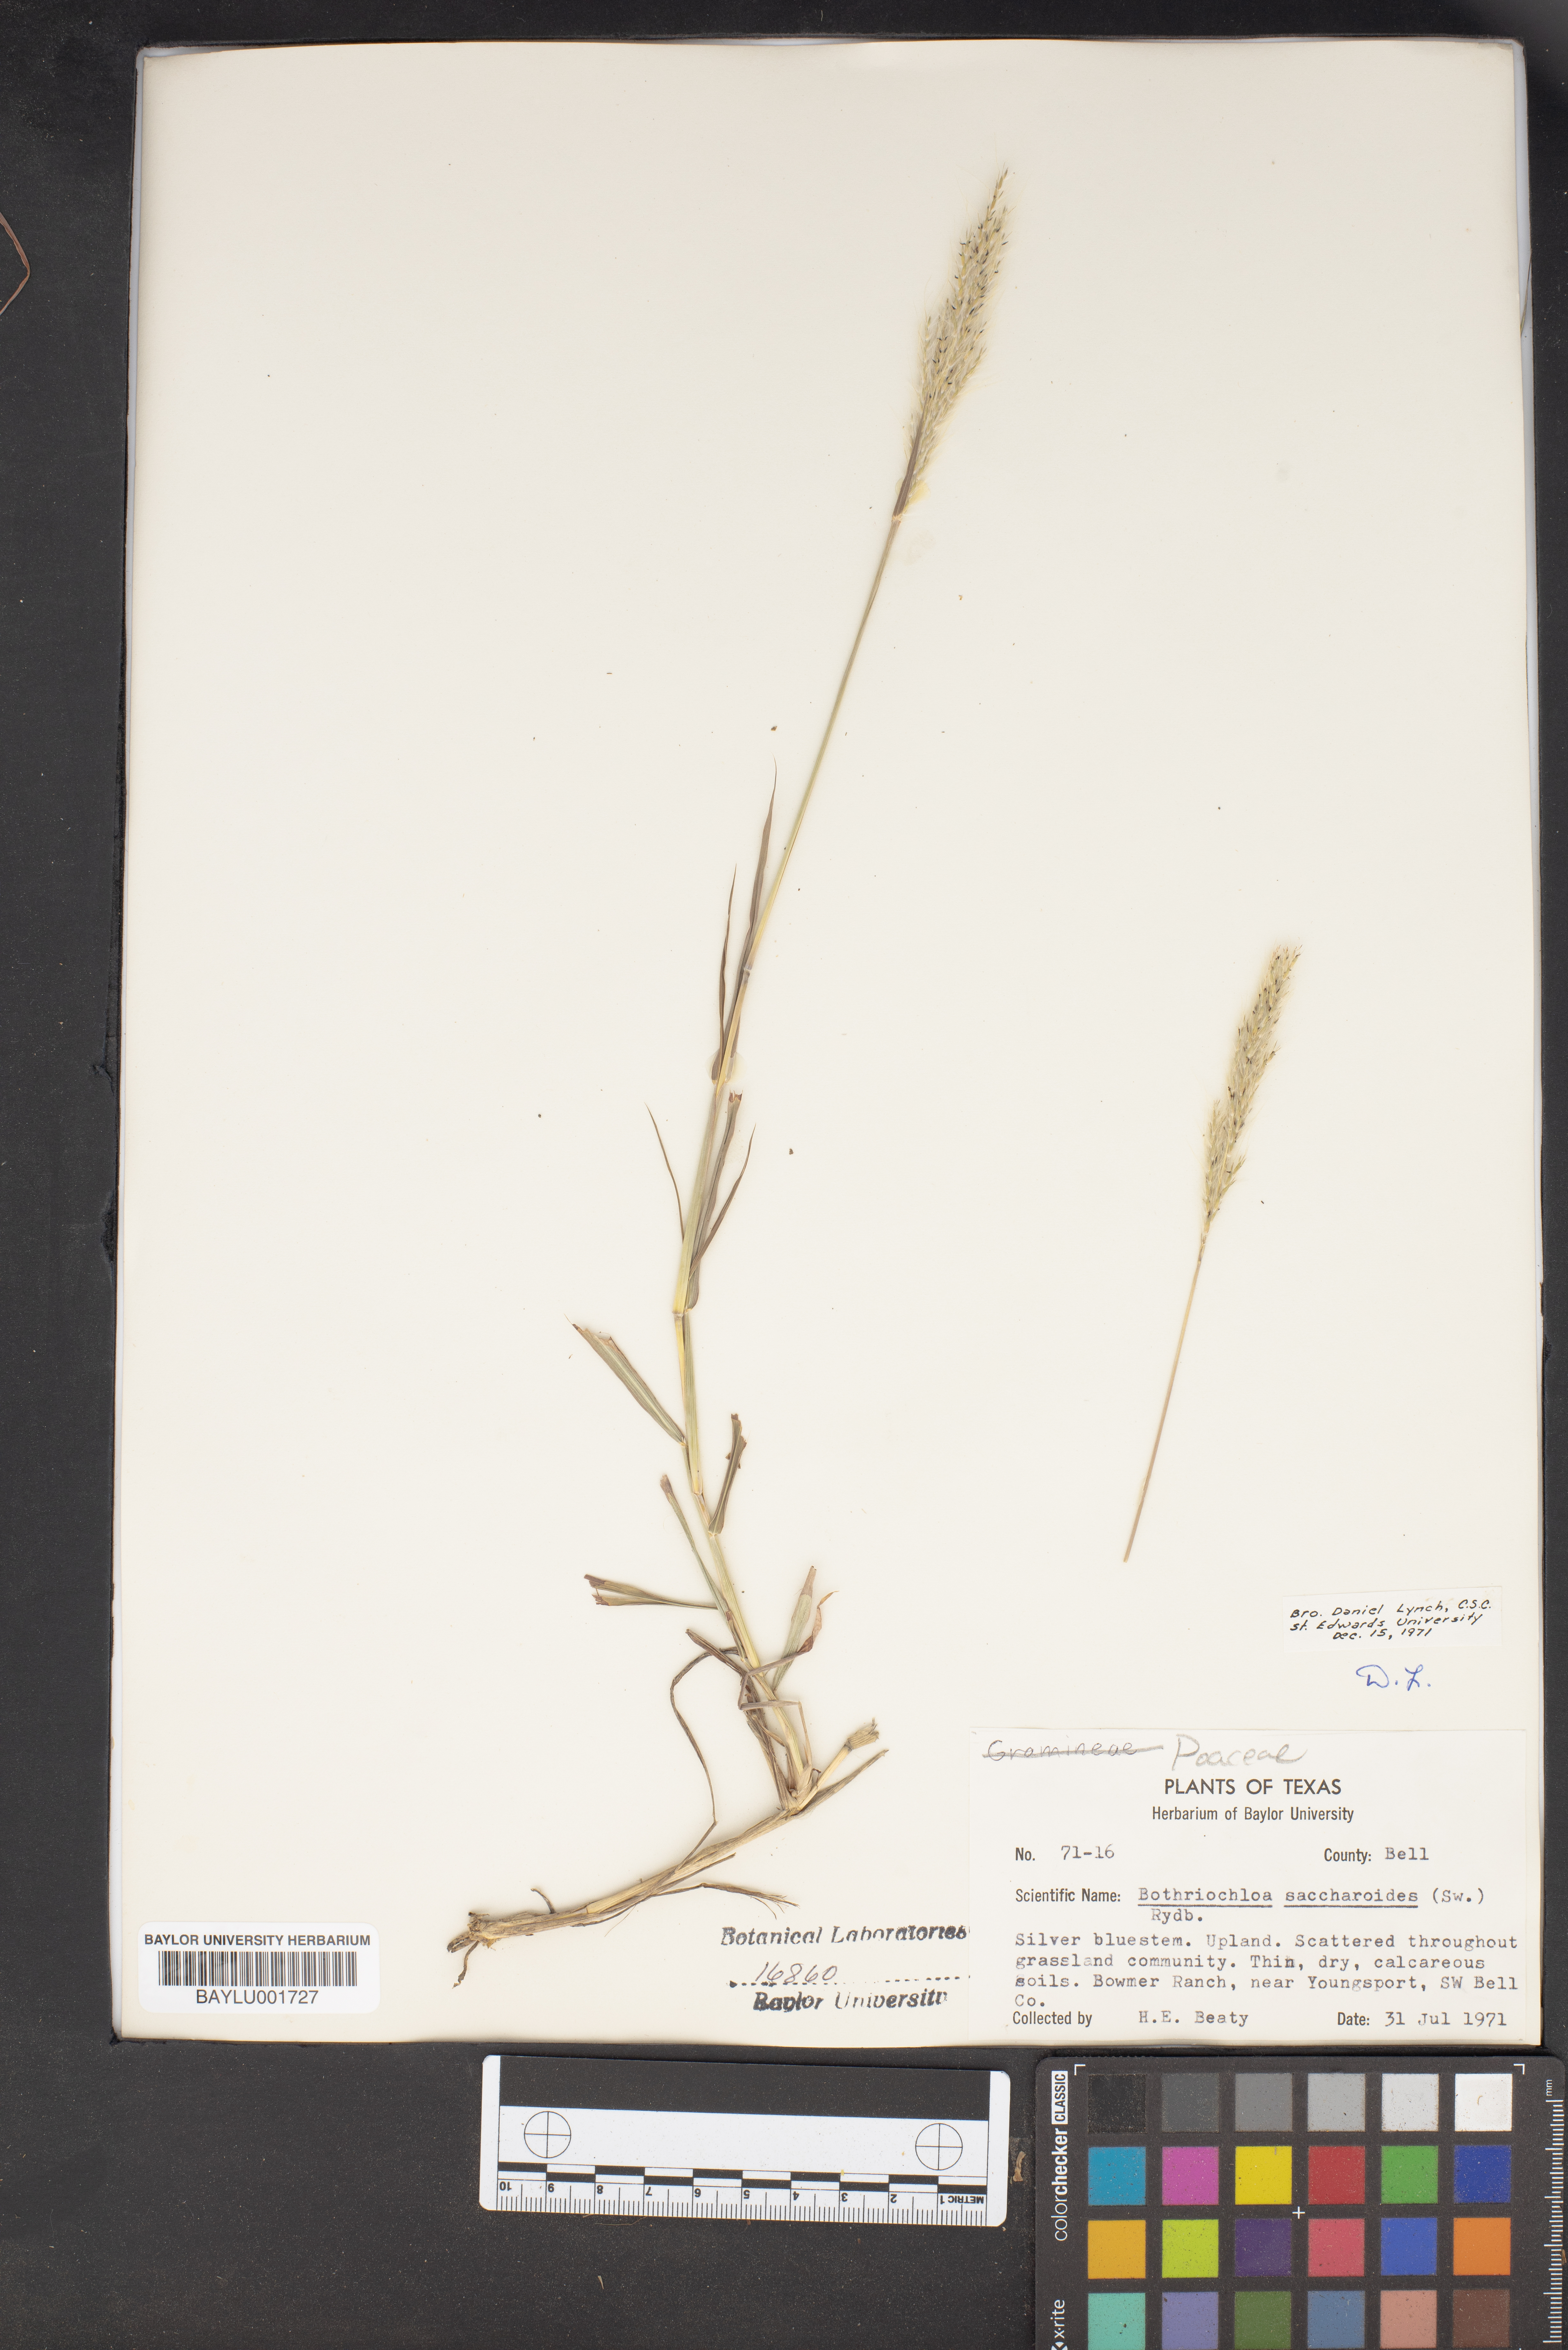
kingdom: Plantae
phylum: Tracheophyta
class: Liliopsida
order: Poales
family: Poaceae
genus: Bothriochloa
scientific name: Bothriochloa saccharoides
